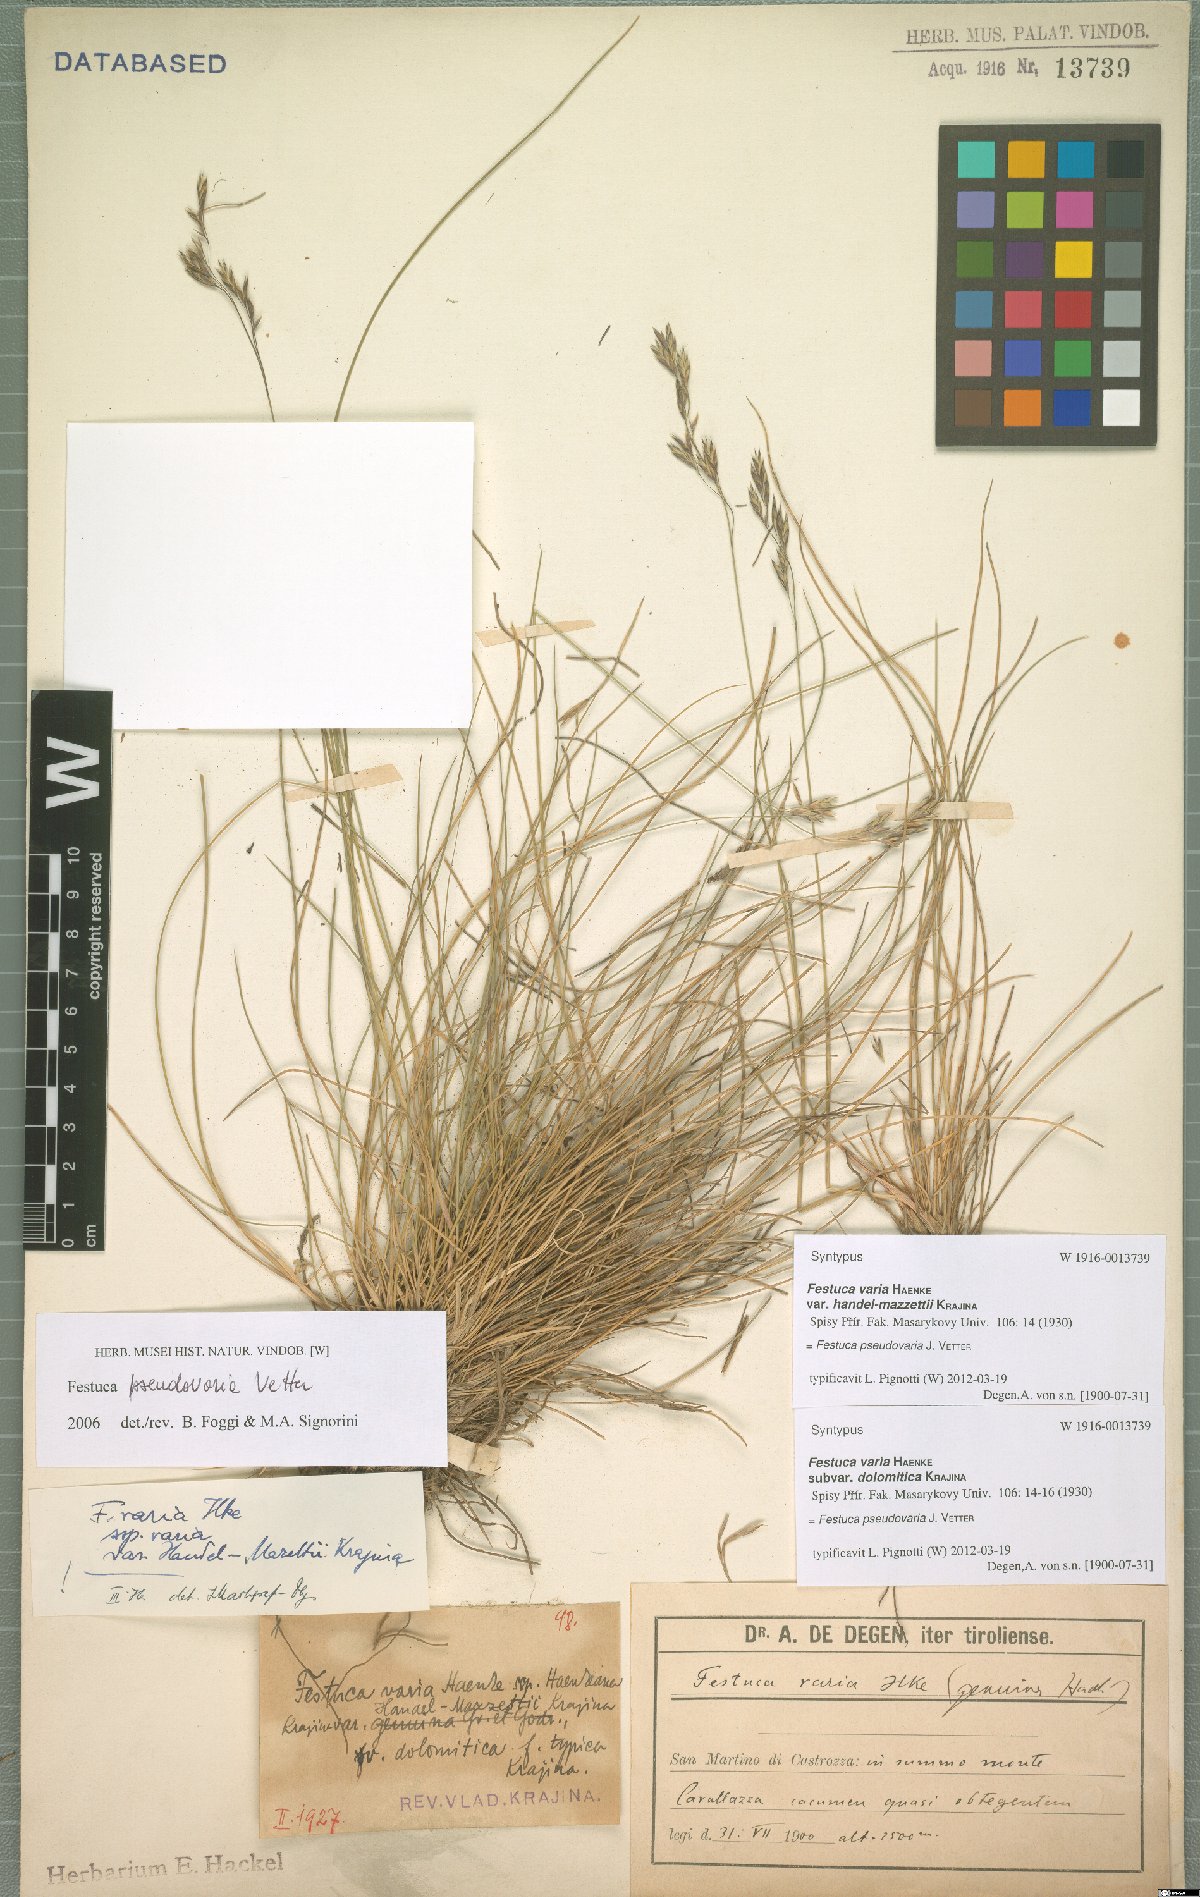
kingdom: Plantae
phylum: Tracheophyta
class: Liliopsida
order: Poales
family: Poaceae
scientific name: Poaceae
